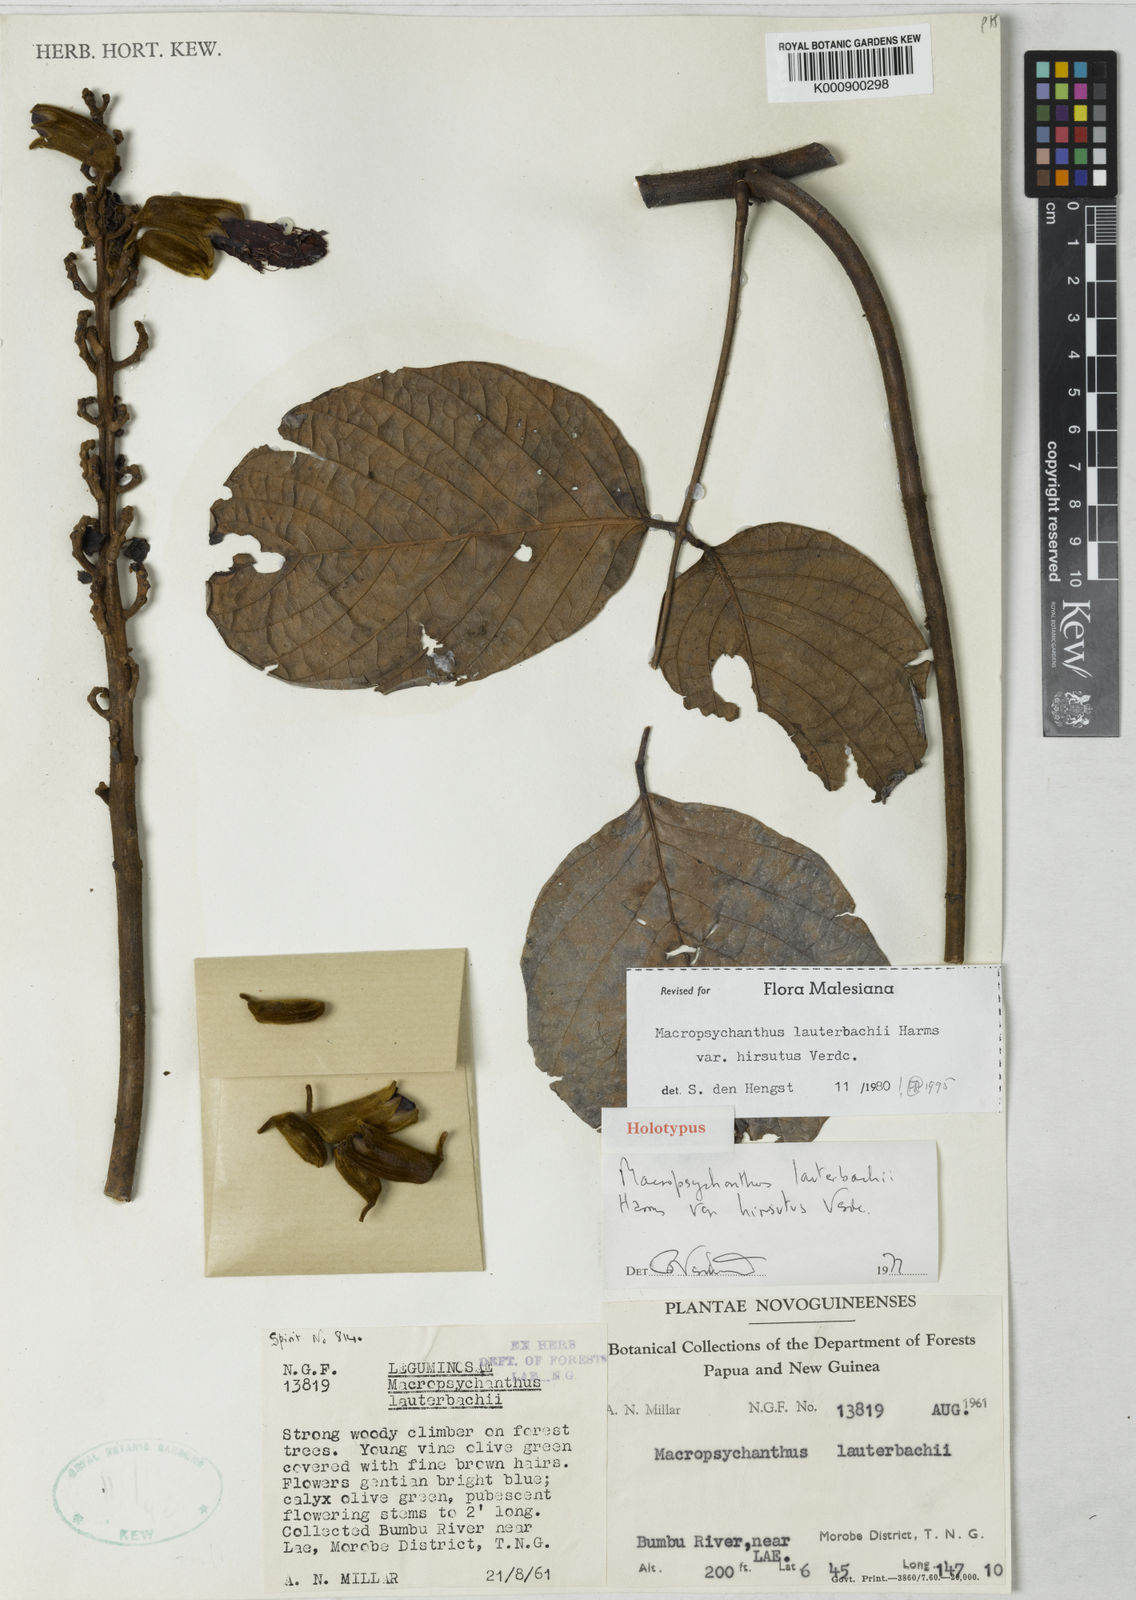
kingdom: Plantae
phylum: Tracheophyta
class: Magnoliopsida
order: Fabales
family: Fabaceae
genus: Macropsychanthus
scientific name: Macropsychanthus lauterbachii
